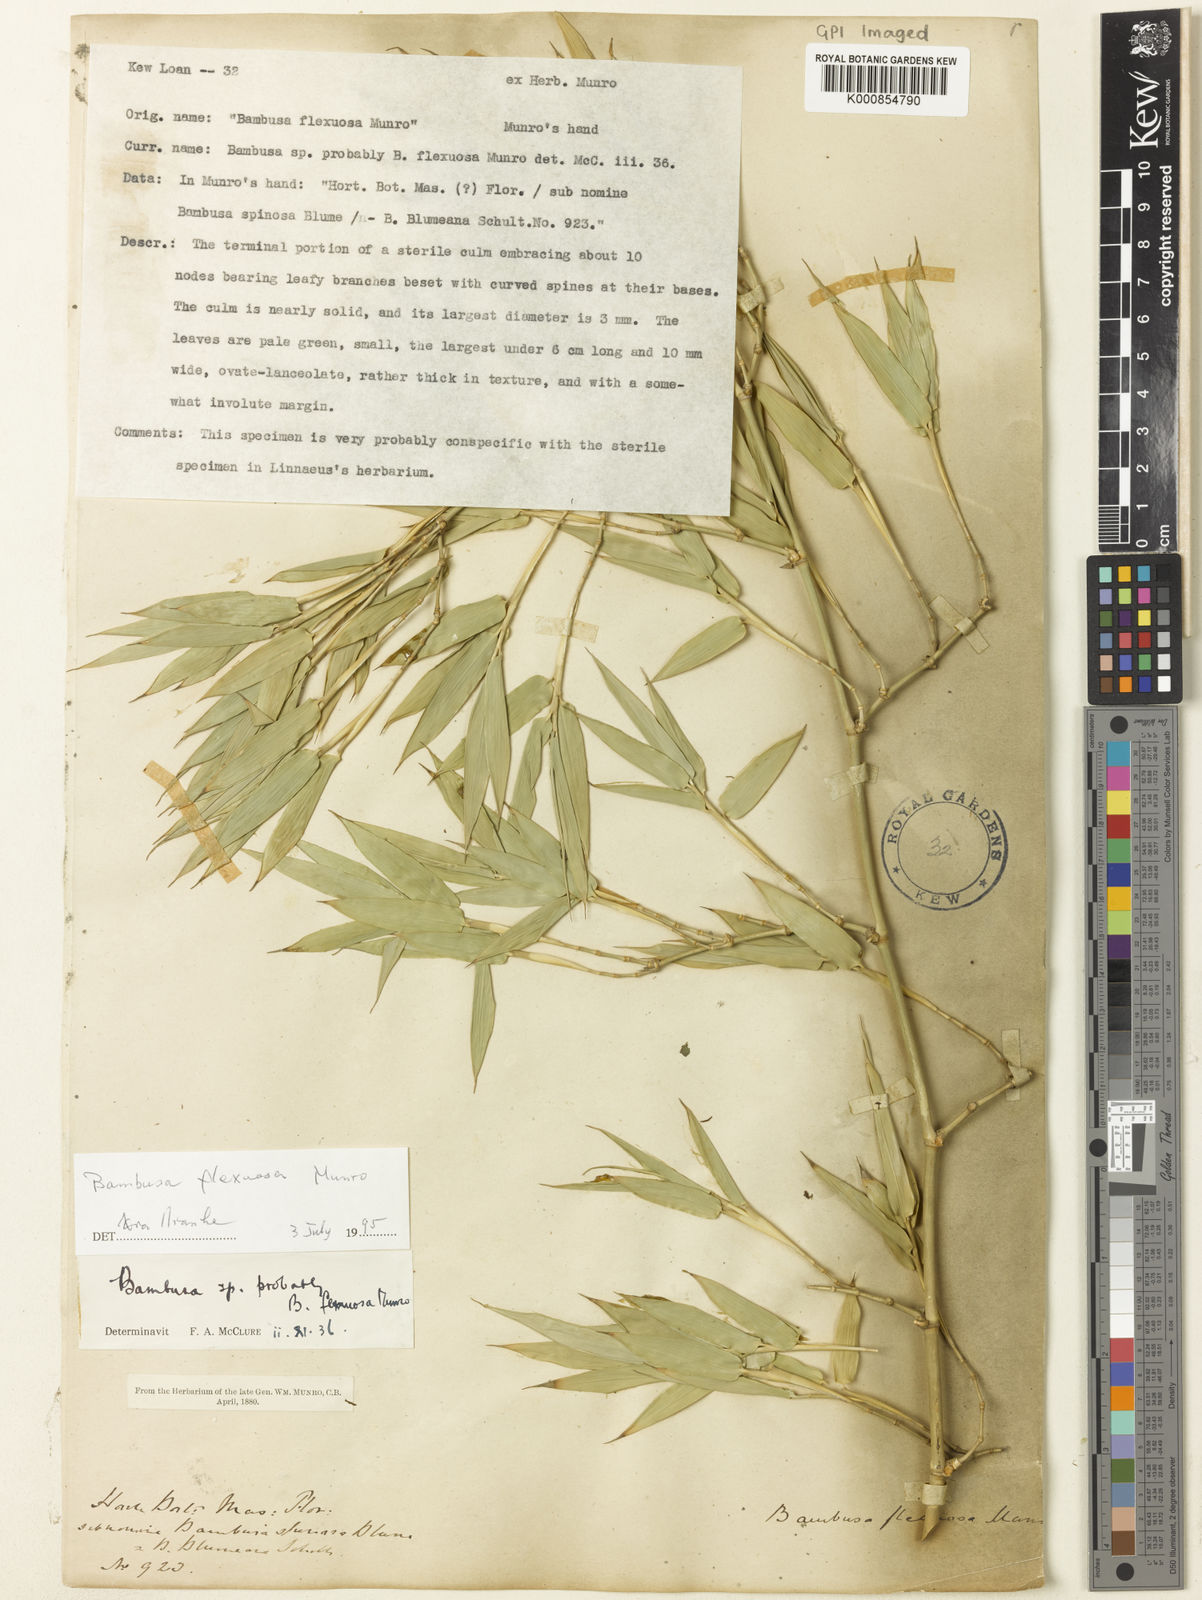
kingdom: Plantae
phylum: Tracheophyta
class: Liliopsida
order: Poales
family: Poaceae
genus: Bambusa
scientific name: Bambusa flexuosa
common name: Lesser thorny bamboo
